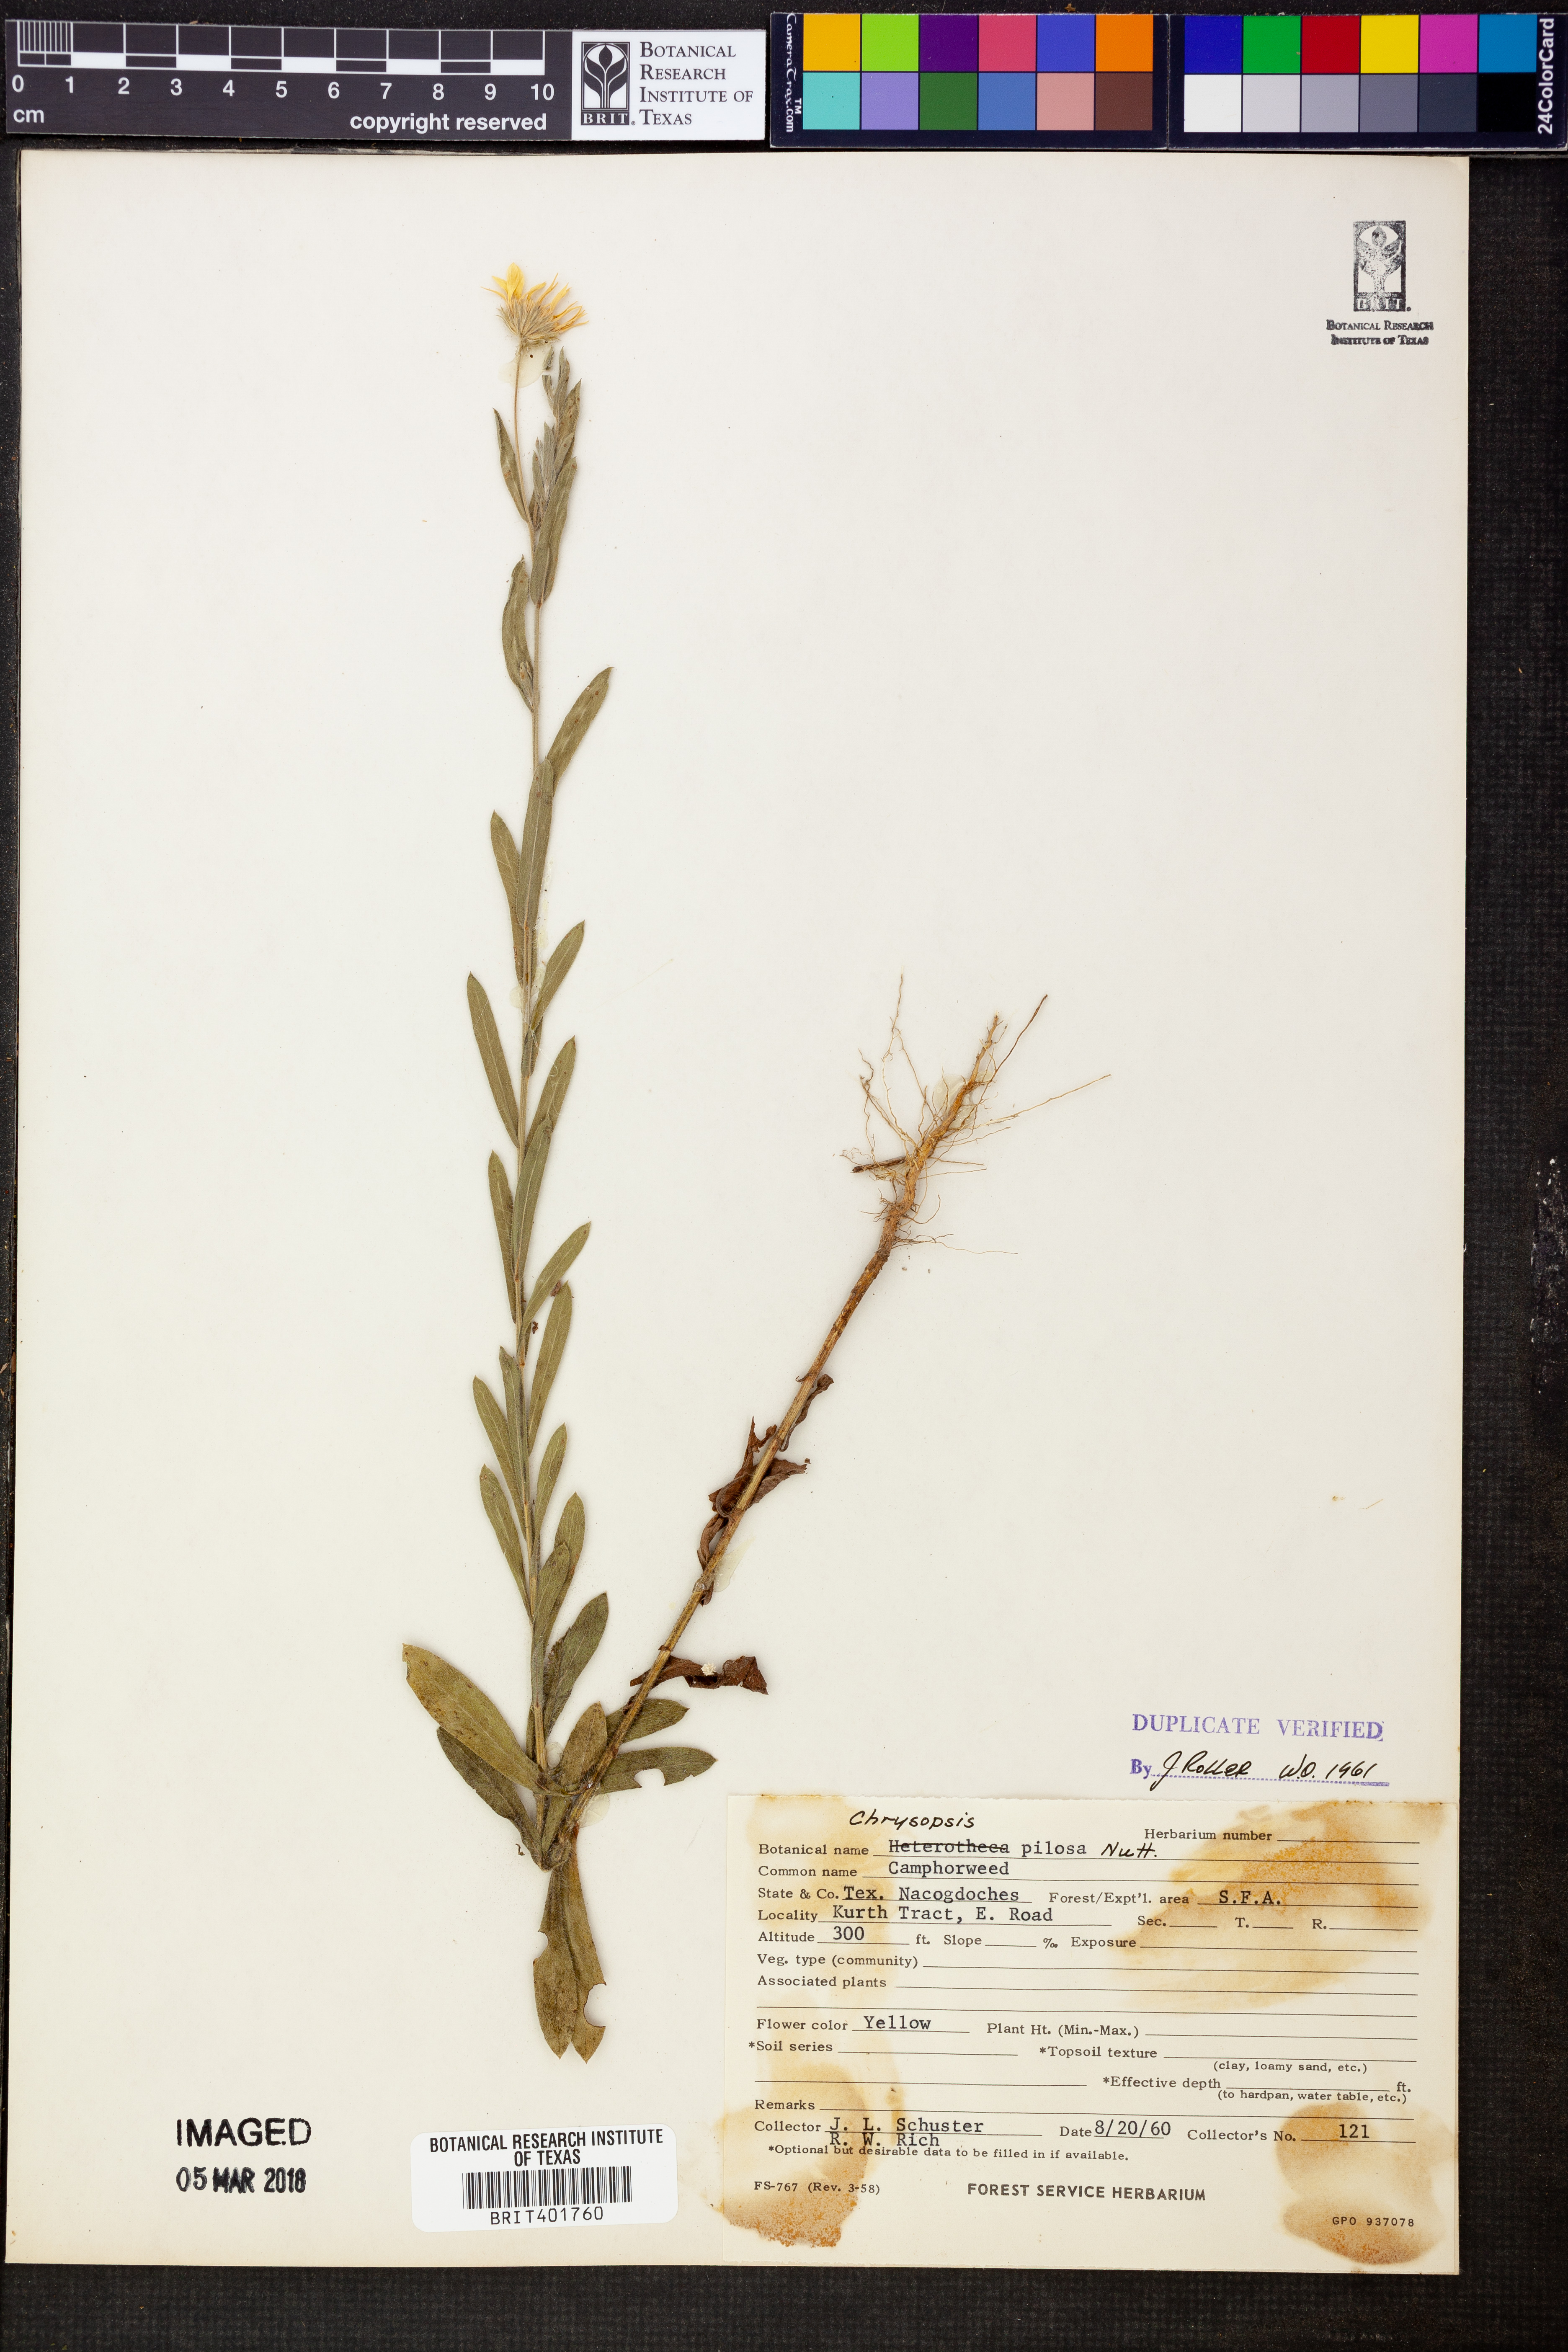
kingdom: Plantae
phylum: Tracheophyta
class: Magnoliopsida
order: Asterales
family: Asteraceae
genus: Bradburia
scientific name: Bradburia pilosa
